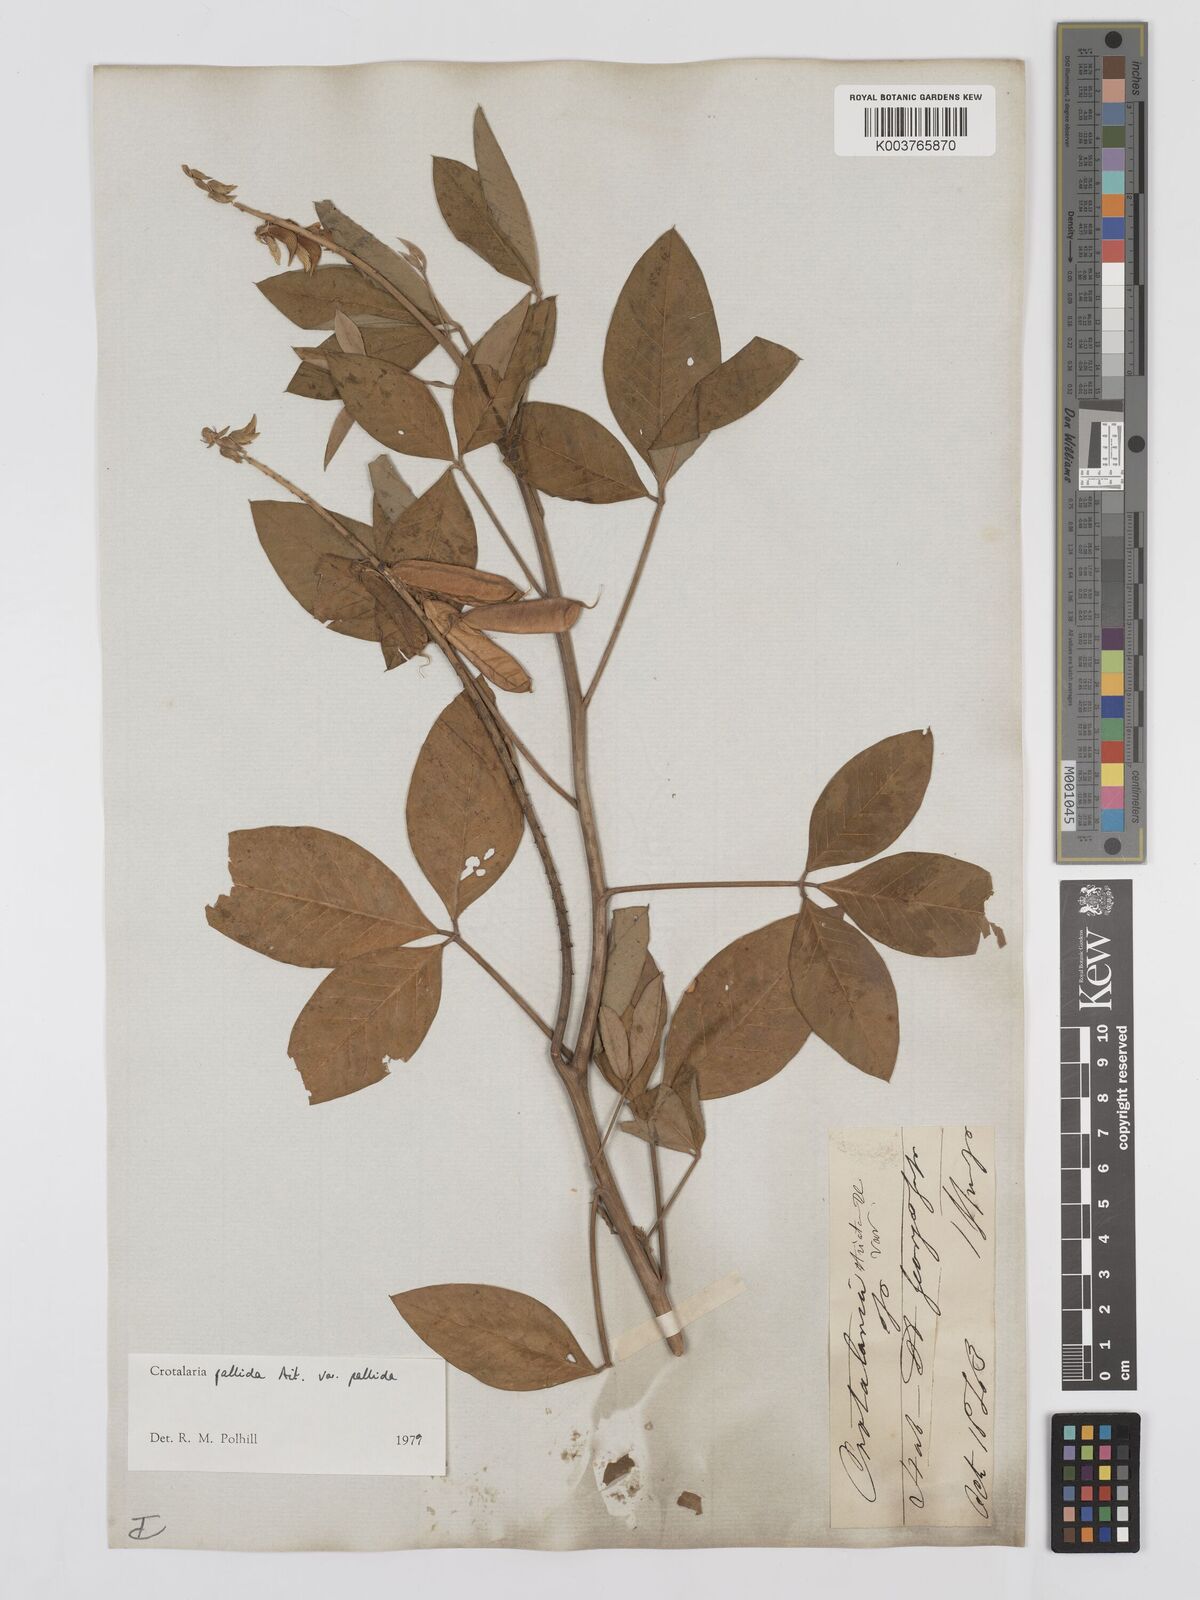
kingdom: Plantae
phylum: Tracheophyta
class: Magnoliopsida
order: Fabales
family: Fabaceae
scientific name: Fabaceae
